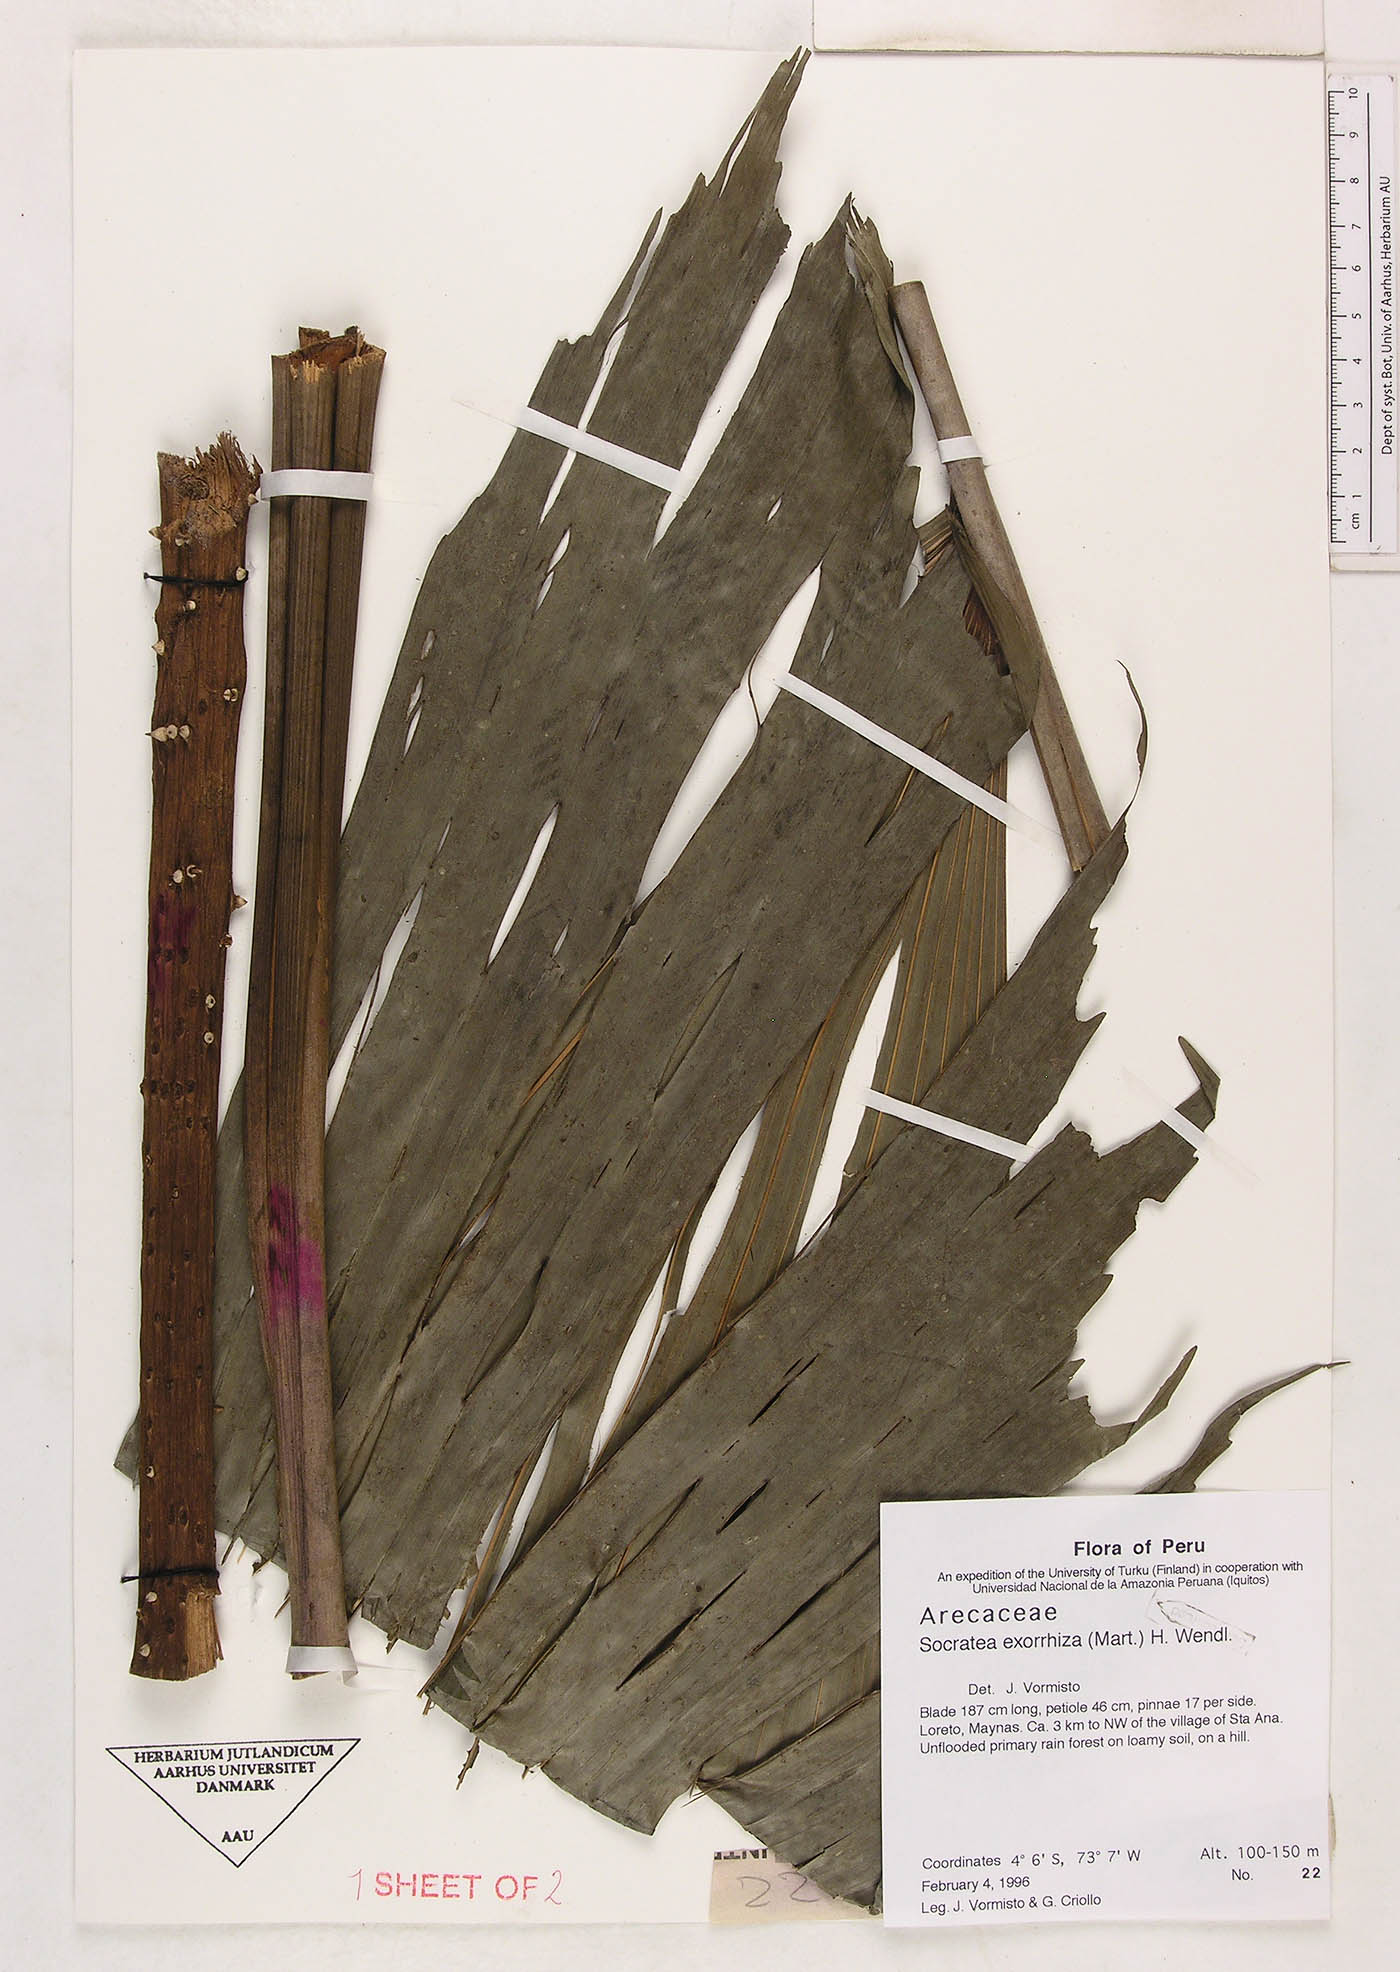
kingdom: Plantae
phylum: Tracheophyta
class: Liliopsida
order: Arecales
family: Arecaceae
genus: Socratea
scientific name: Socratea exorrhiza
